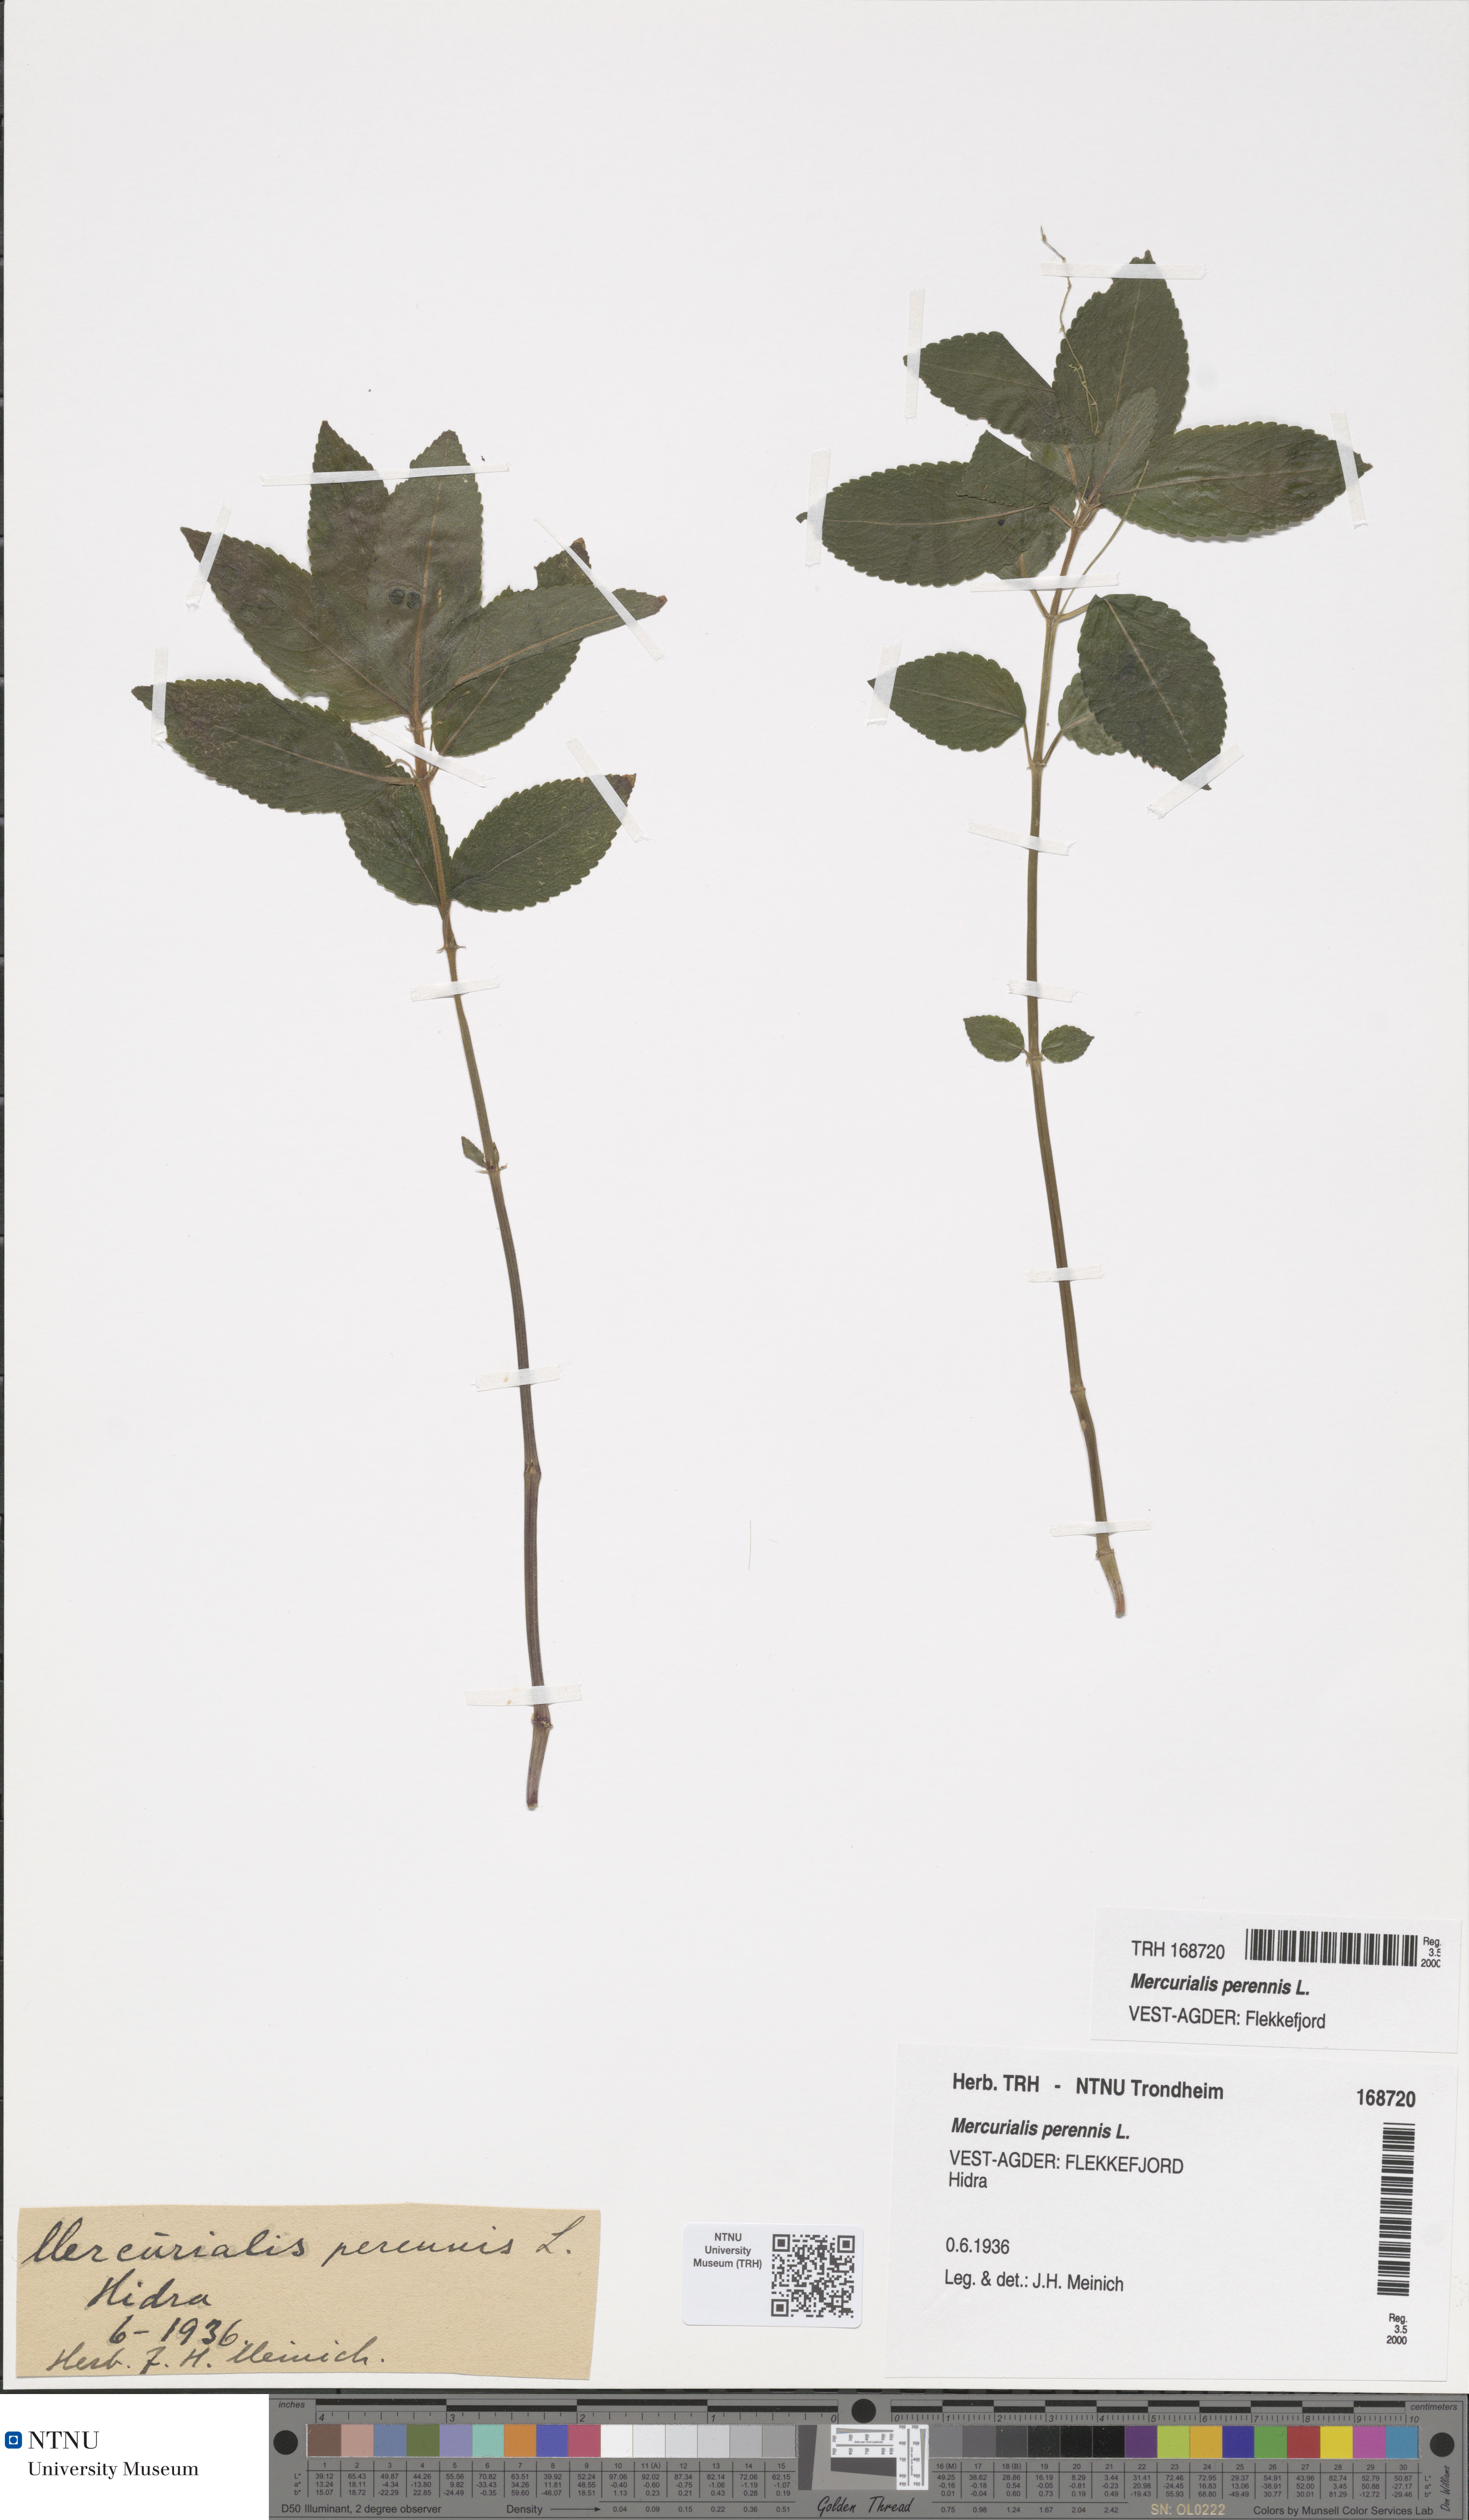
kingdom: Plantae
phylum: Tracheophyta
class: Magnoliopsida
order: Malpighiales
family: Euphorbiaceae
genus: Mercurialis
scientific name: Mercurialis perennis
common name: Dog mercury
